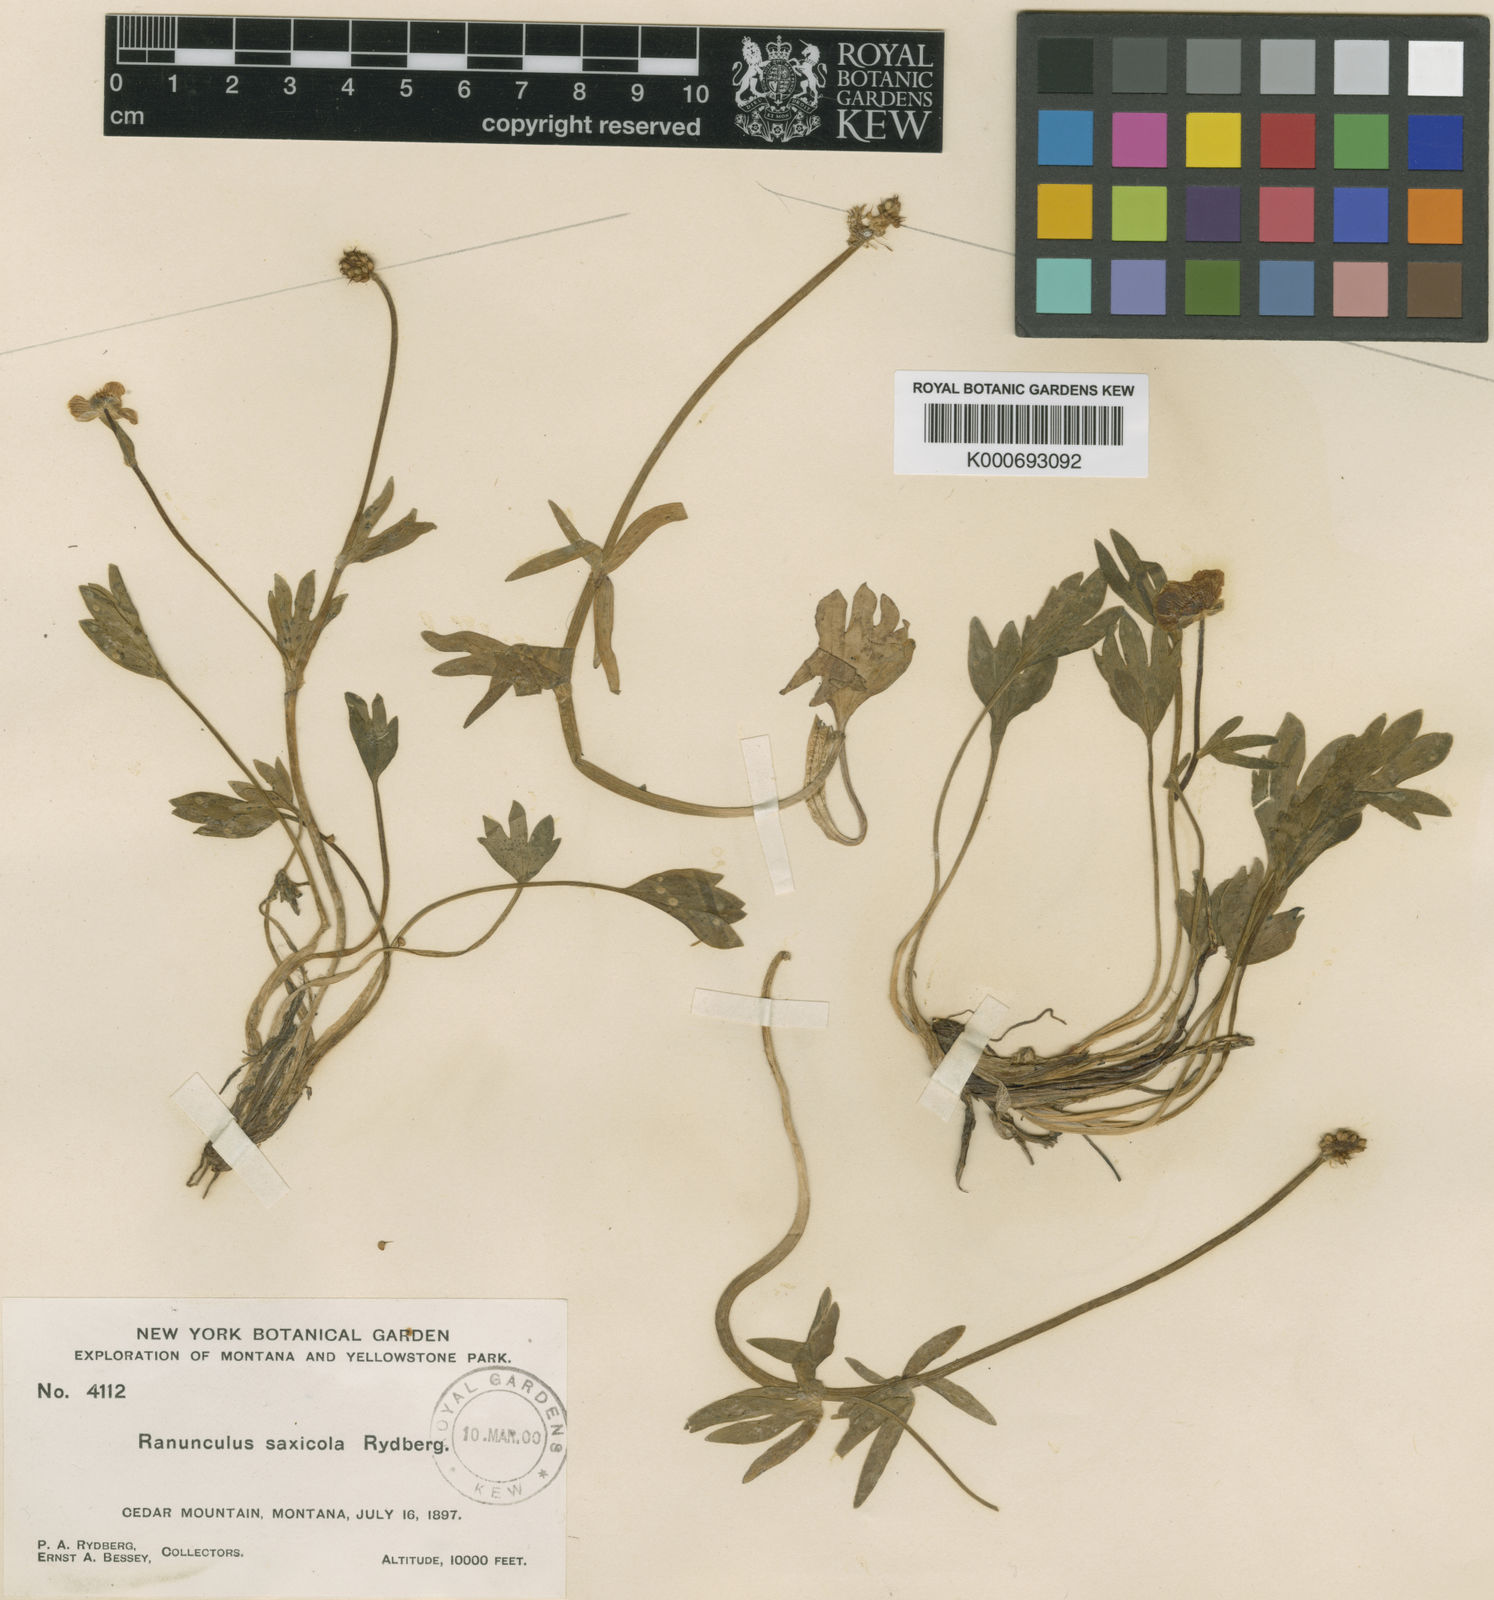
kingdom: Plantae
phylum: Tracheophyta
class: Magnoliopsida
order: Ranunculales
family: Ranunculaceae
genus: Ranunculus
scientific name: Ranunculus eximius
